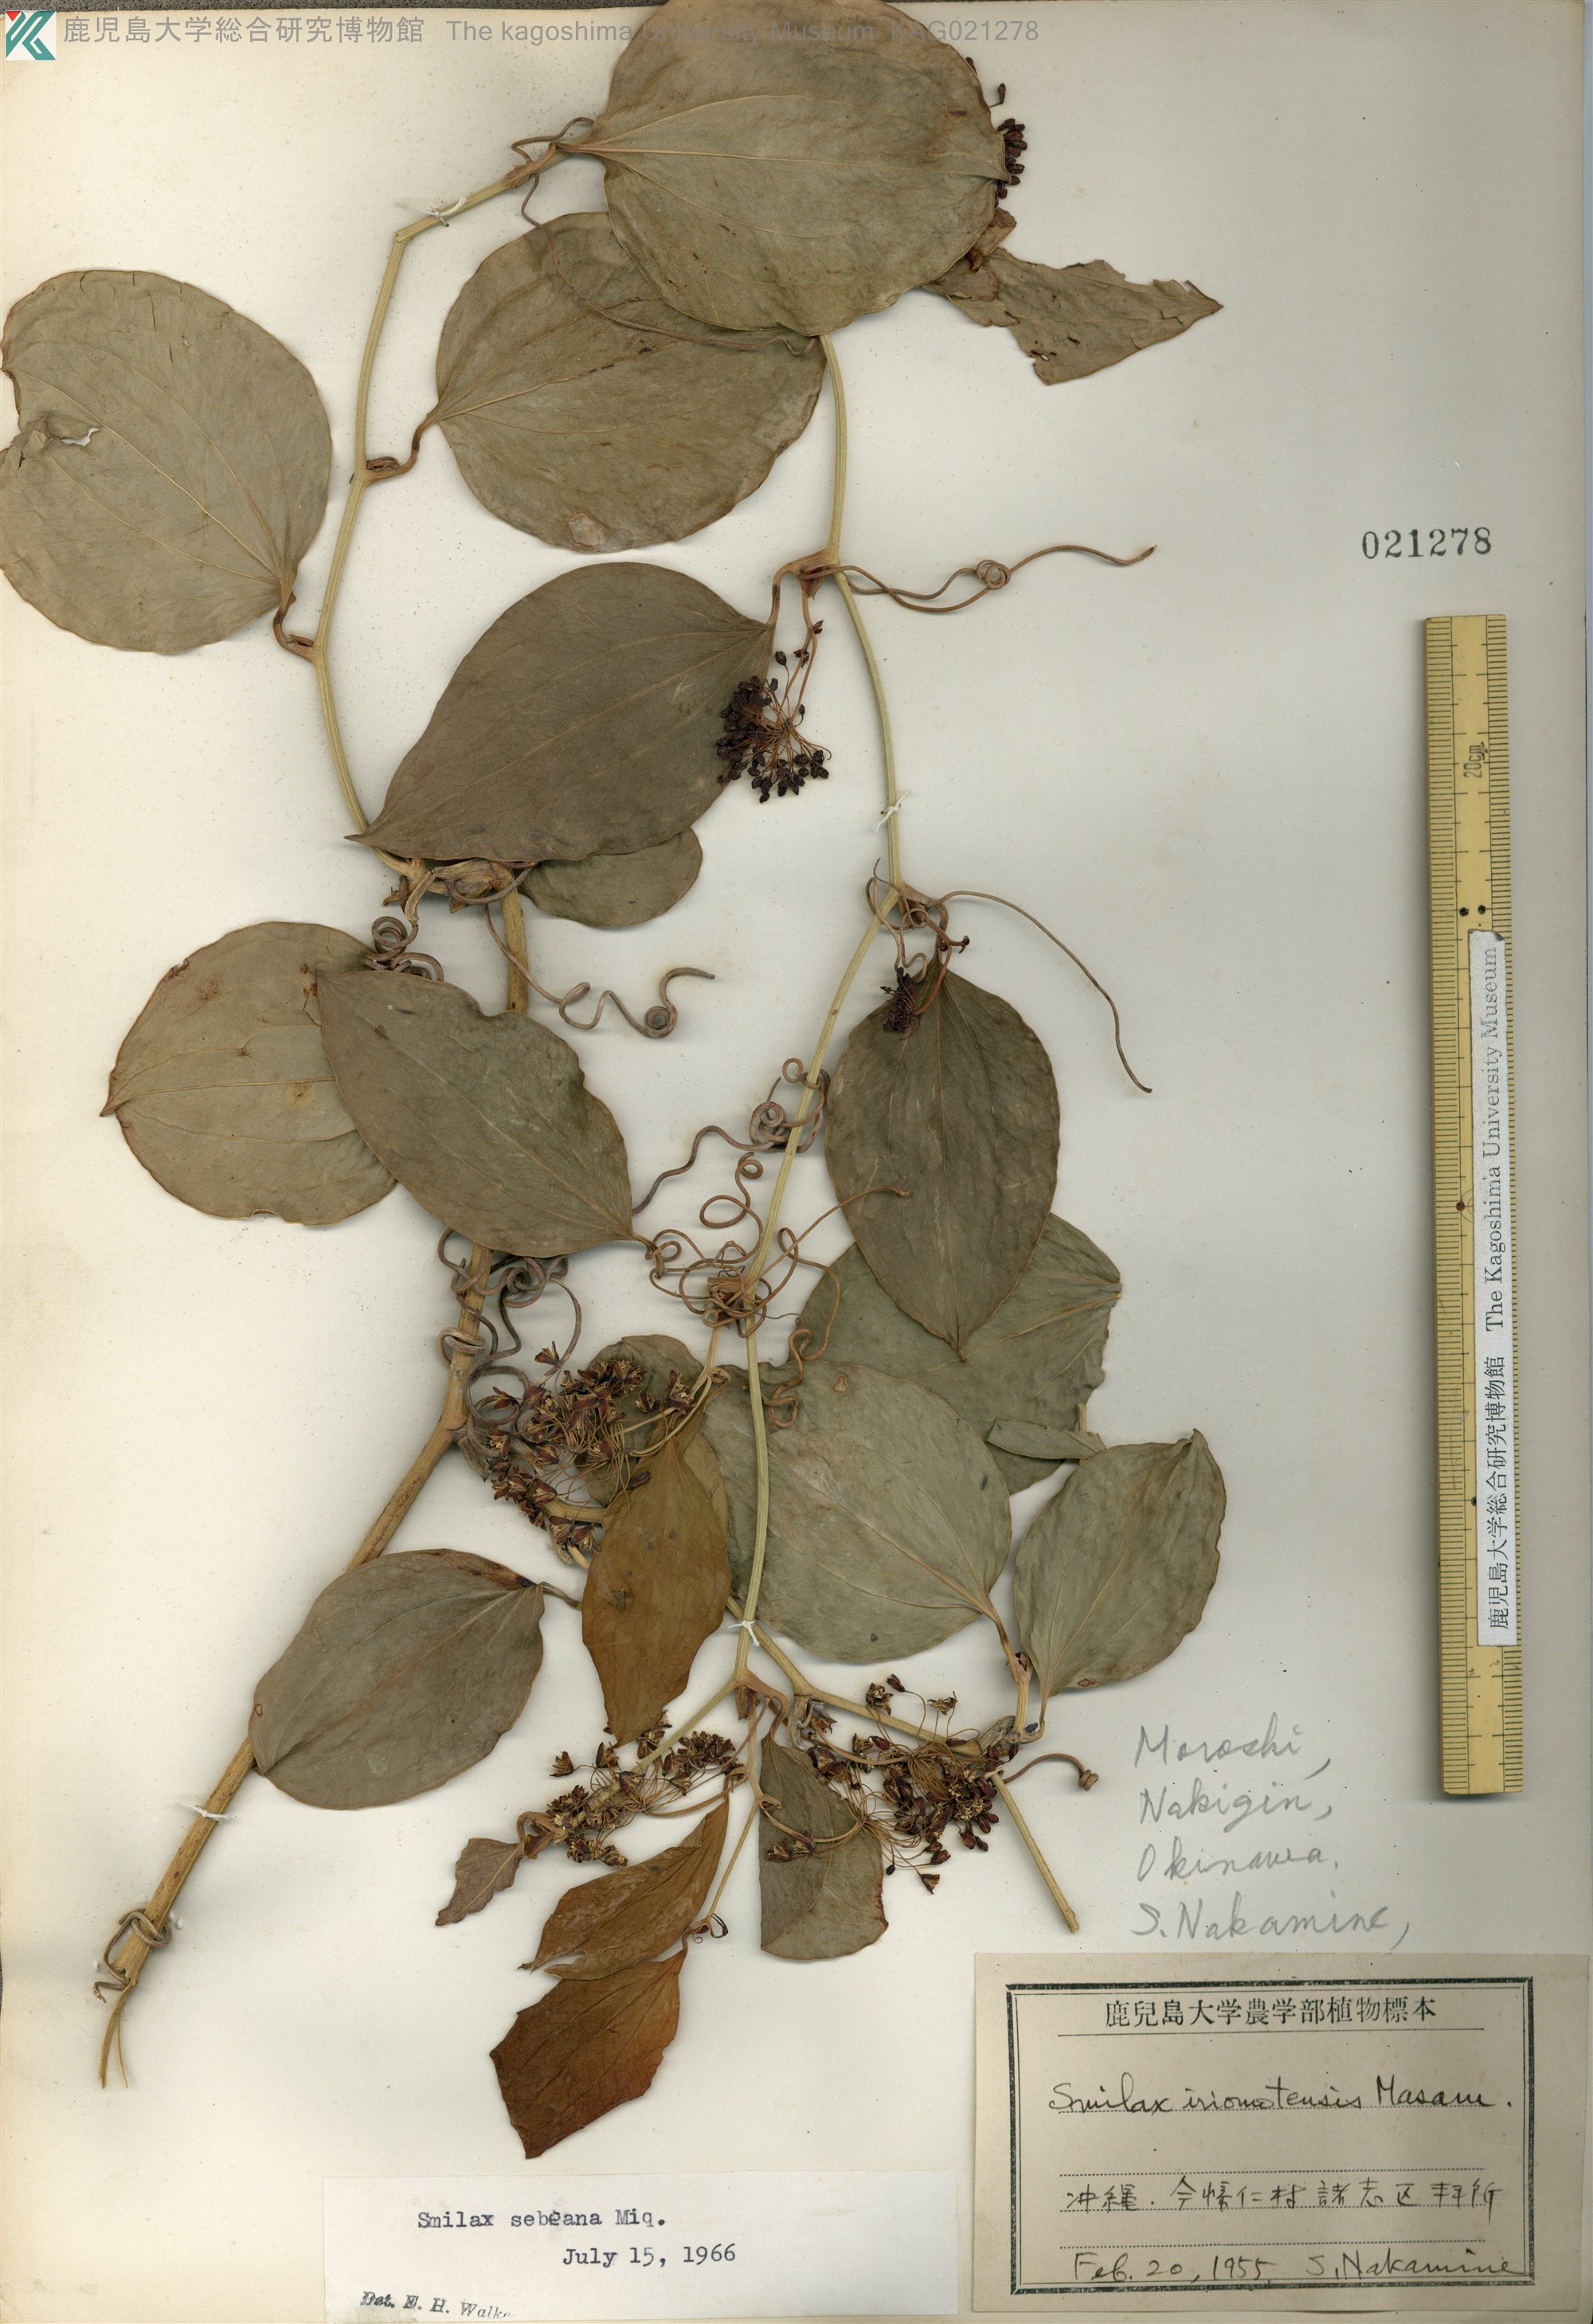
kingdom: Plantae
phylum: Tracheophyta
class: Liliopsida
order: Liliales
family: Smilacaceae
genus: Smilax
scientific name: Smilax sebeana
